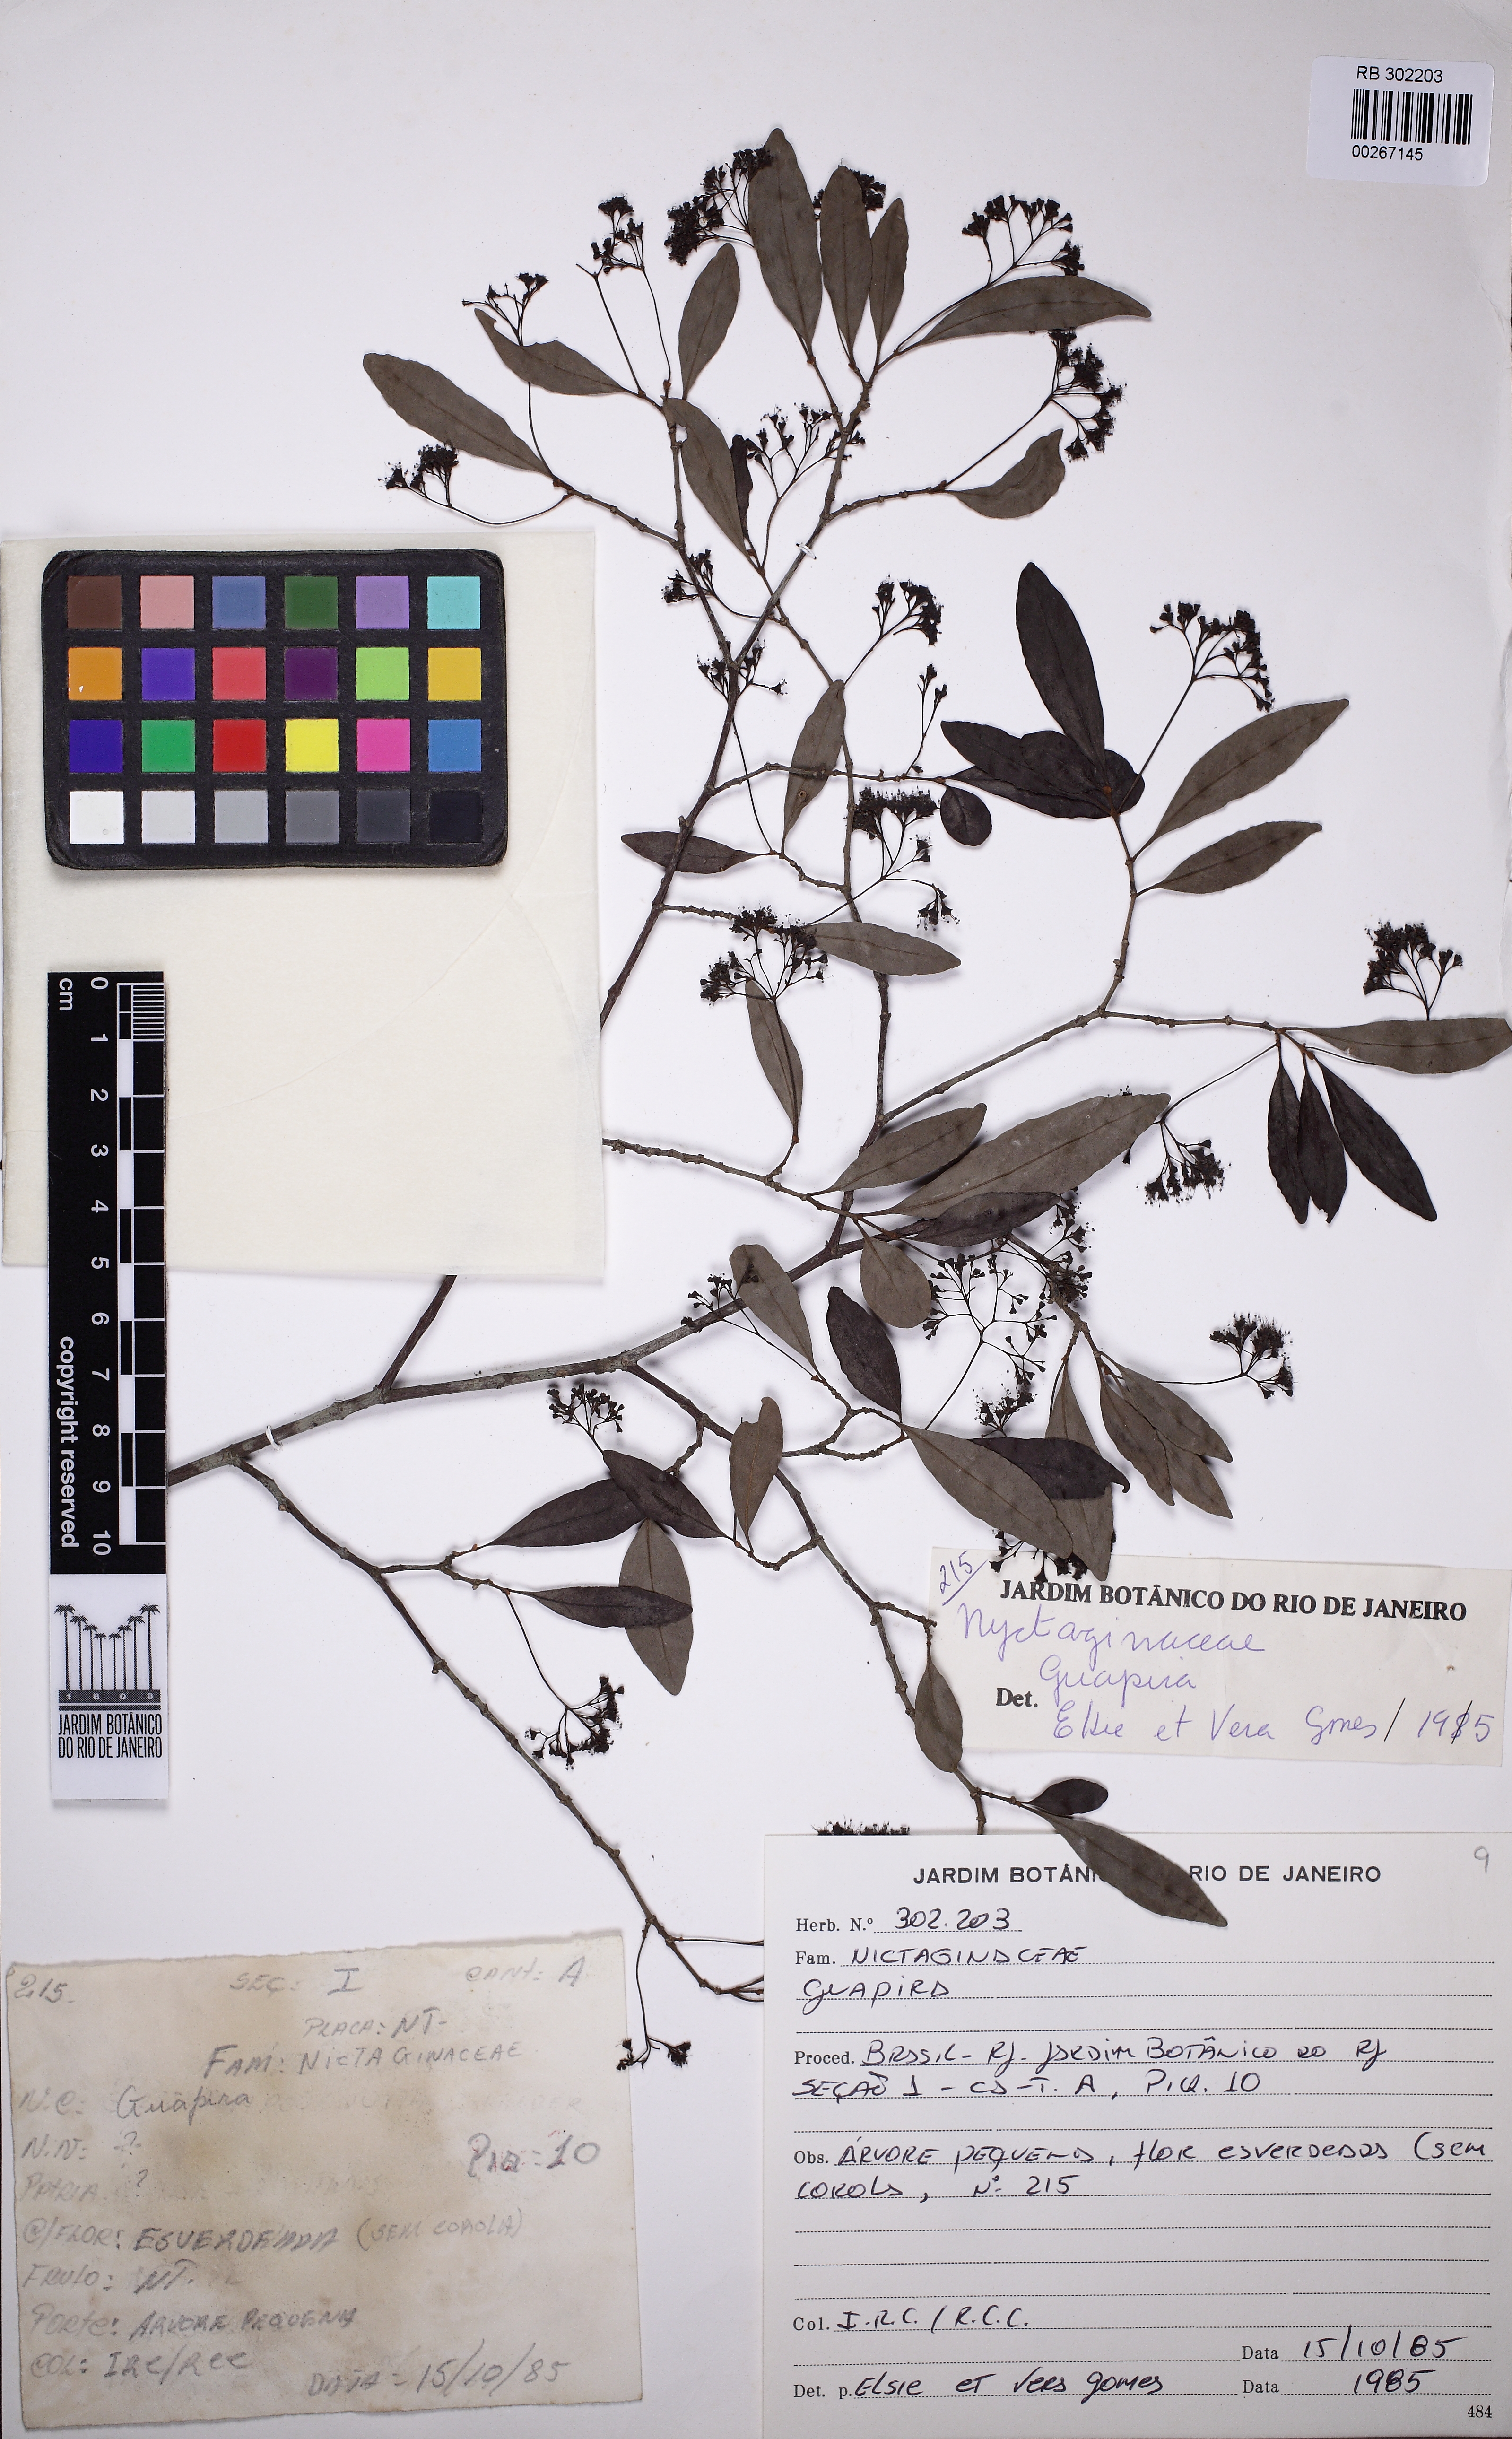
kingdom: Plantae
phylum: Tracheophyta
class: Magnoliopsida
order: Caryophyllales
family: Nyctaginaceae
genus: Guapira
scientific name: Guapira opposita
